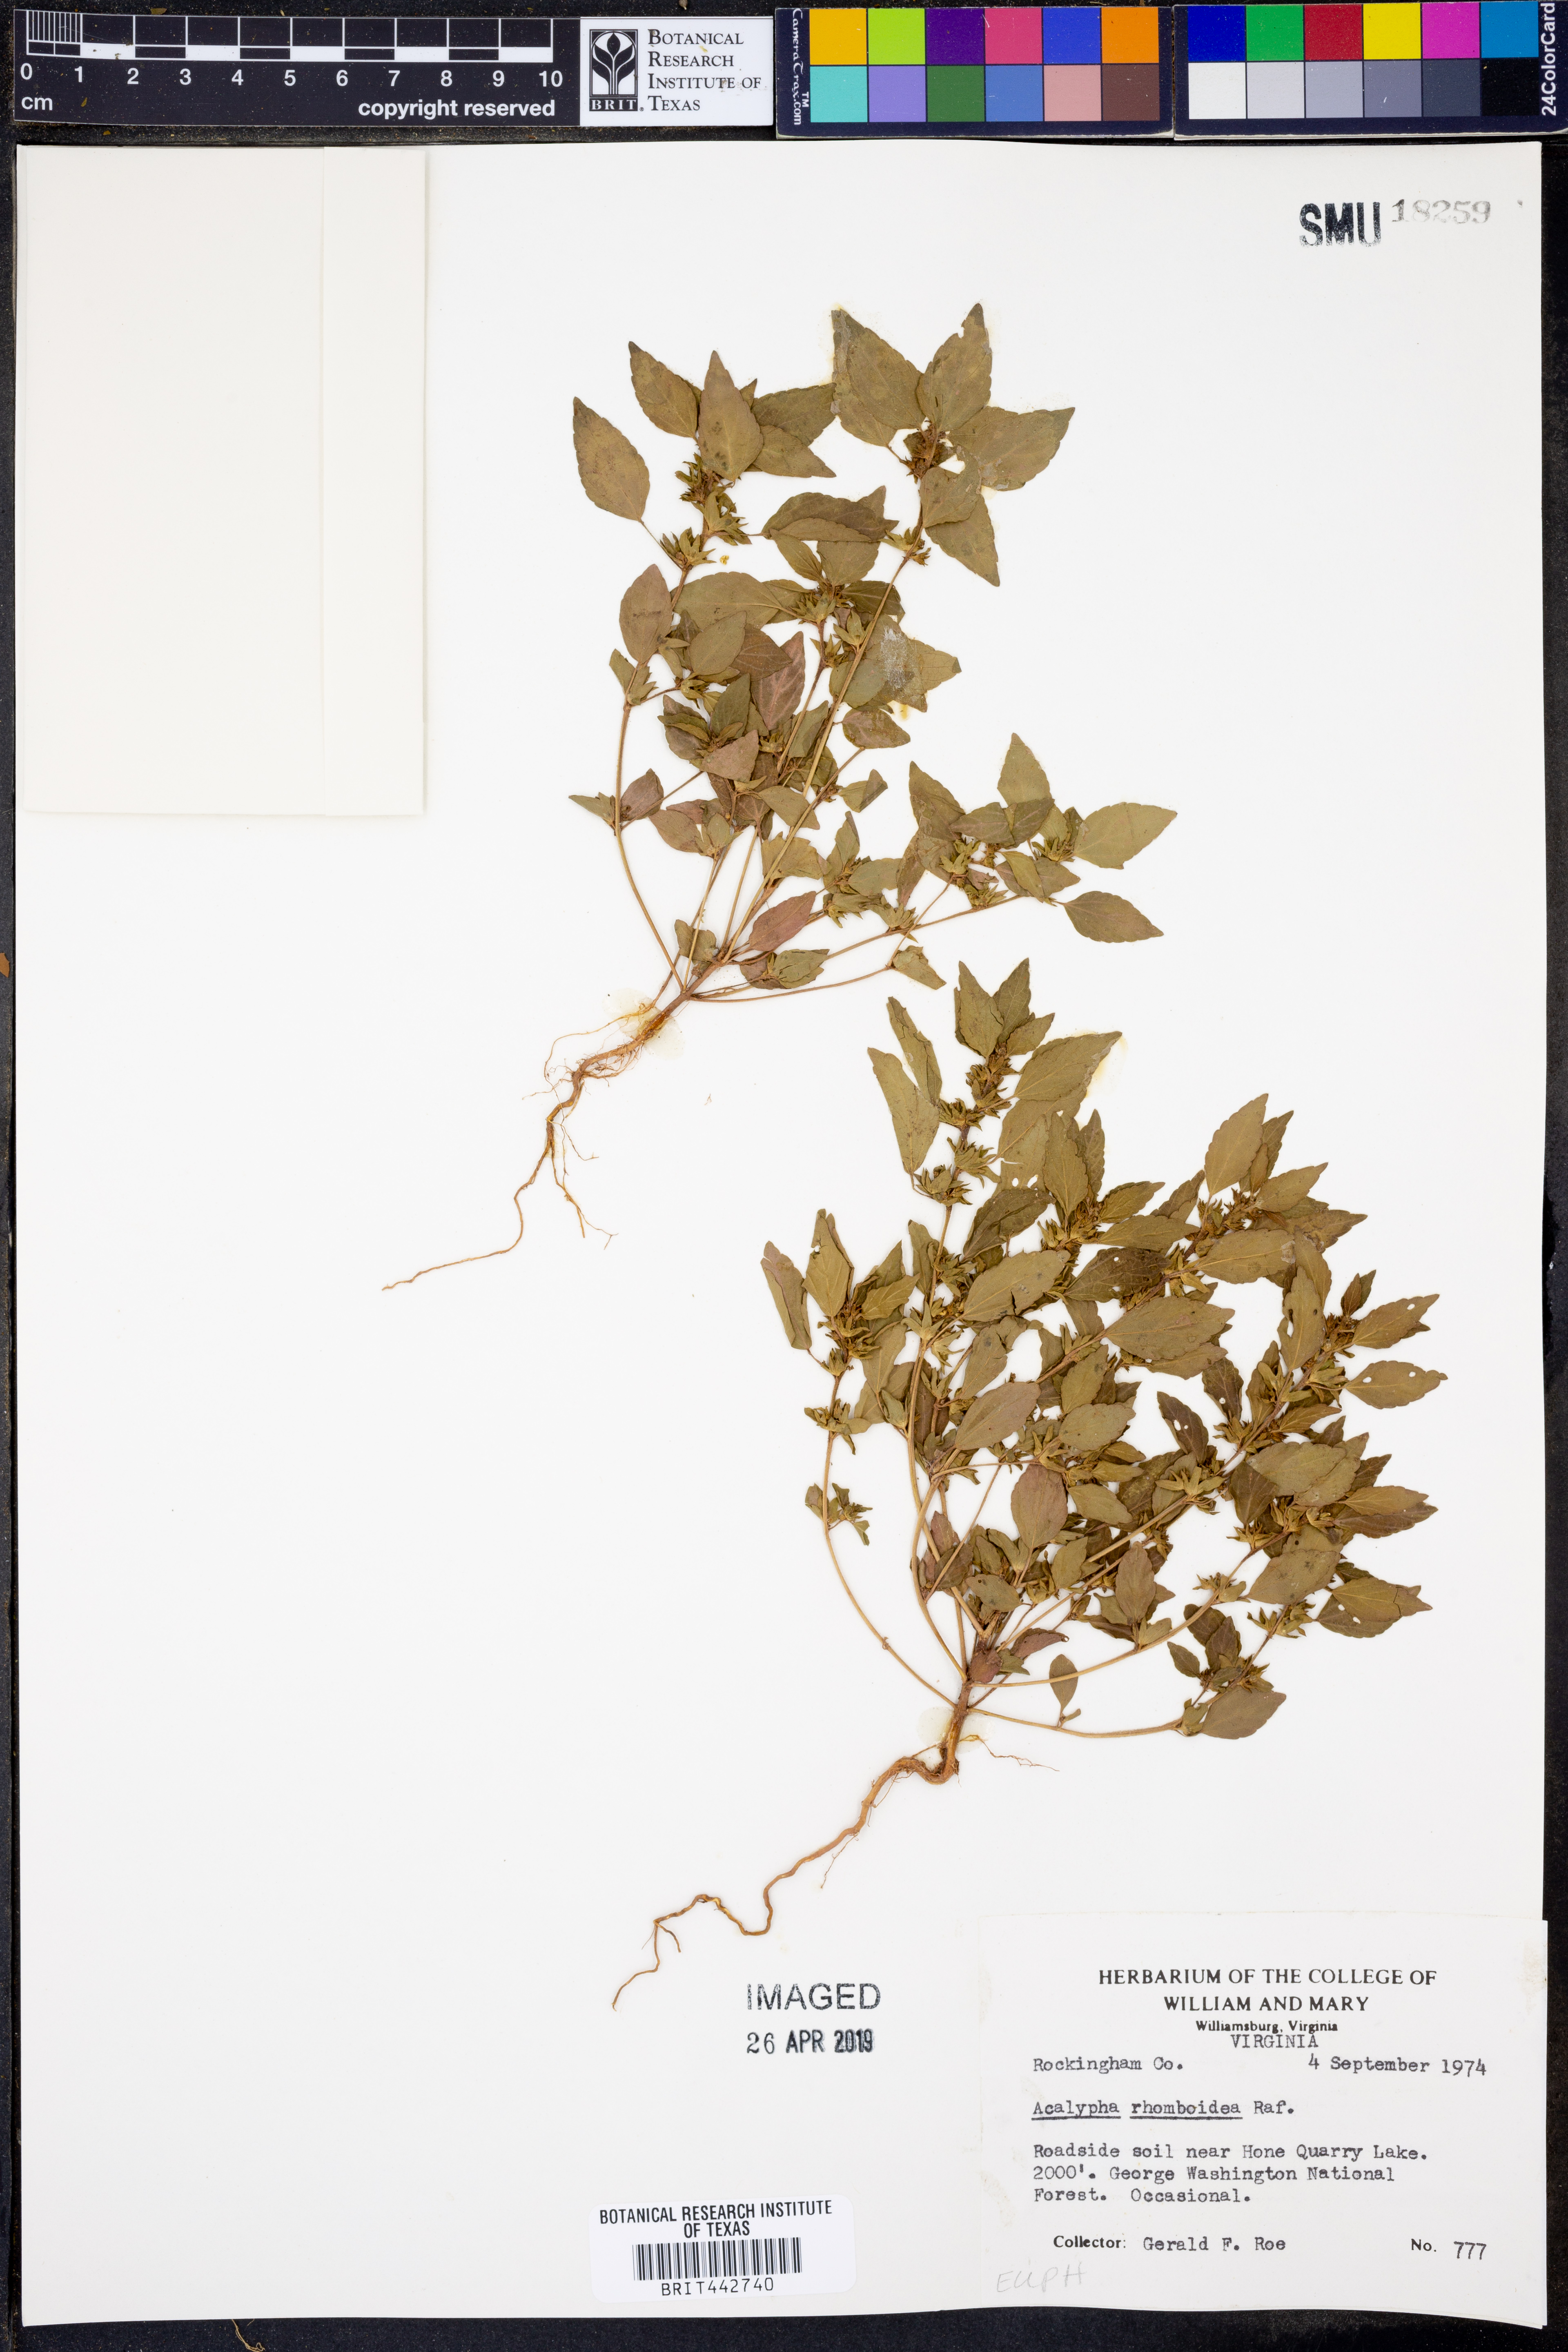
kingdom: Plantae
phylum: Tracheophyta
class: Magnoliopsida
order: Malpighiales
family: Euphorbiaceae
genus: Acalypha
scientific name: Acalypha rhomboidea
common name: Rhombic copperleaf
